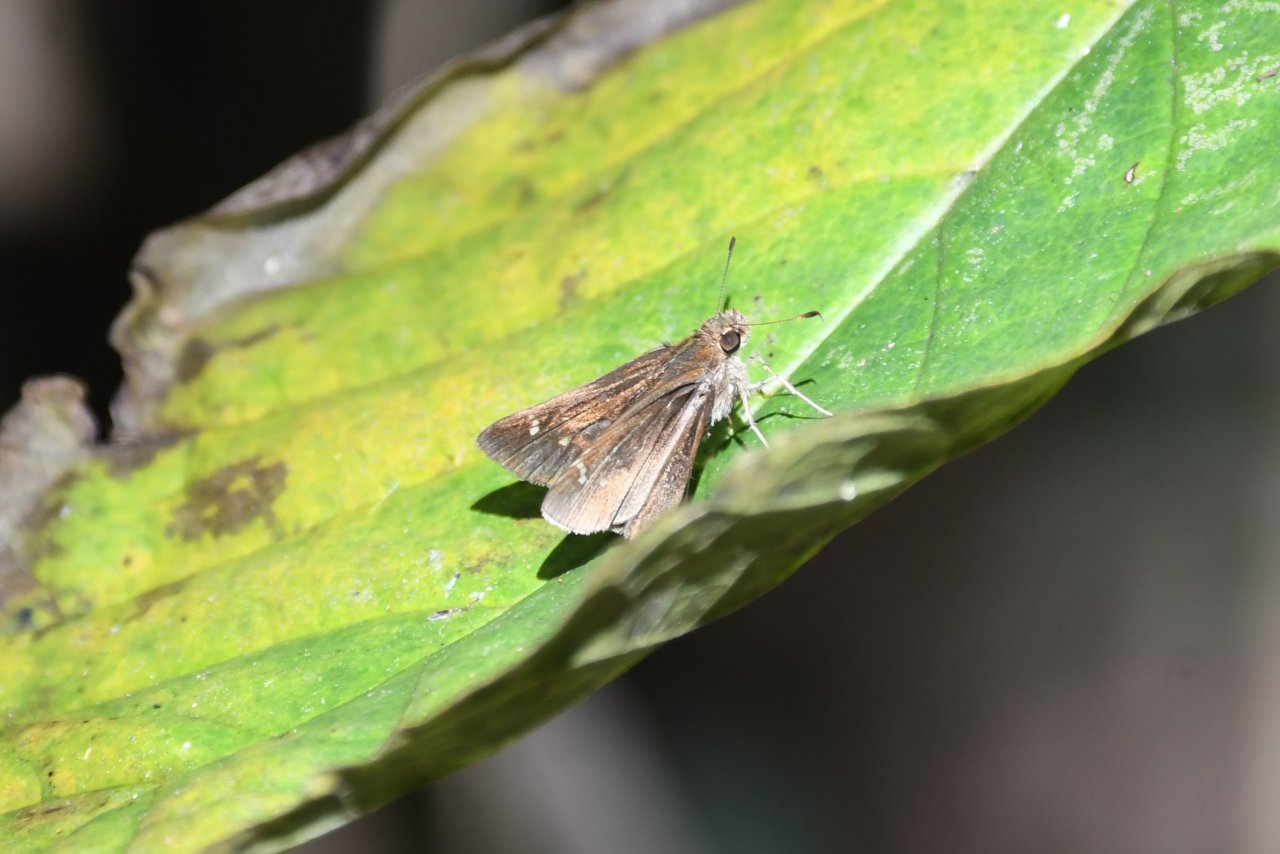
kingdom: Animalia
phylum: Arthropoda
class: Insecta
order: Lepidoptera
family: Hesperiidae
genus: Lerema
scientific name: Lerema accius
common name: Clouded Skipper
